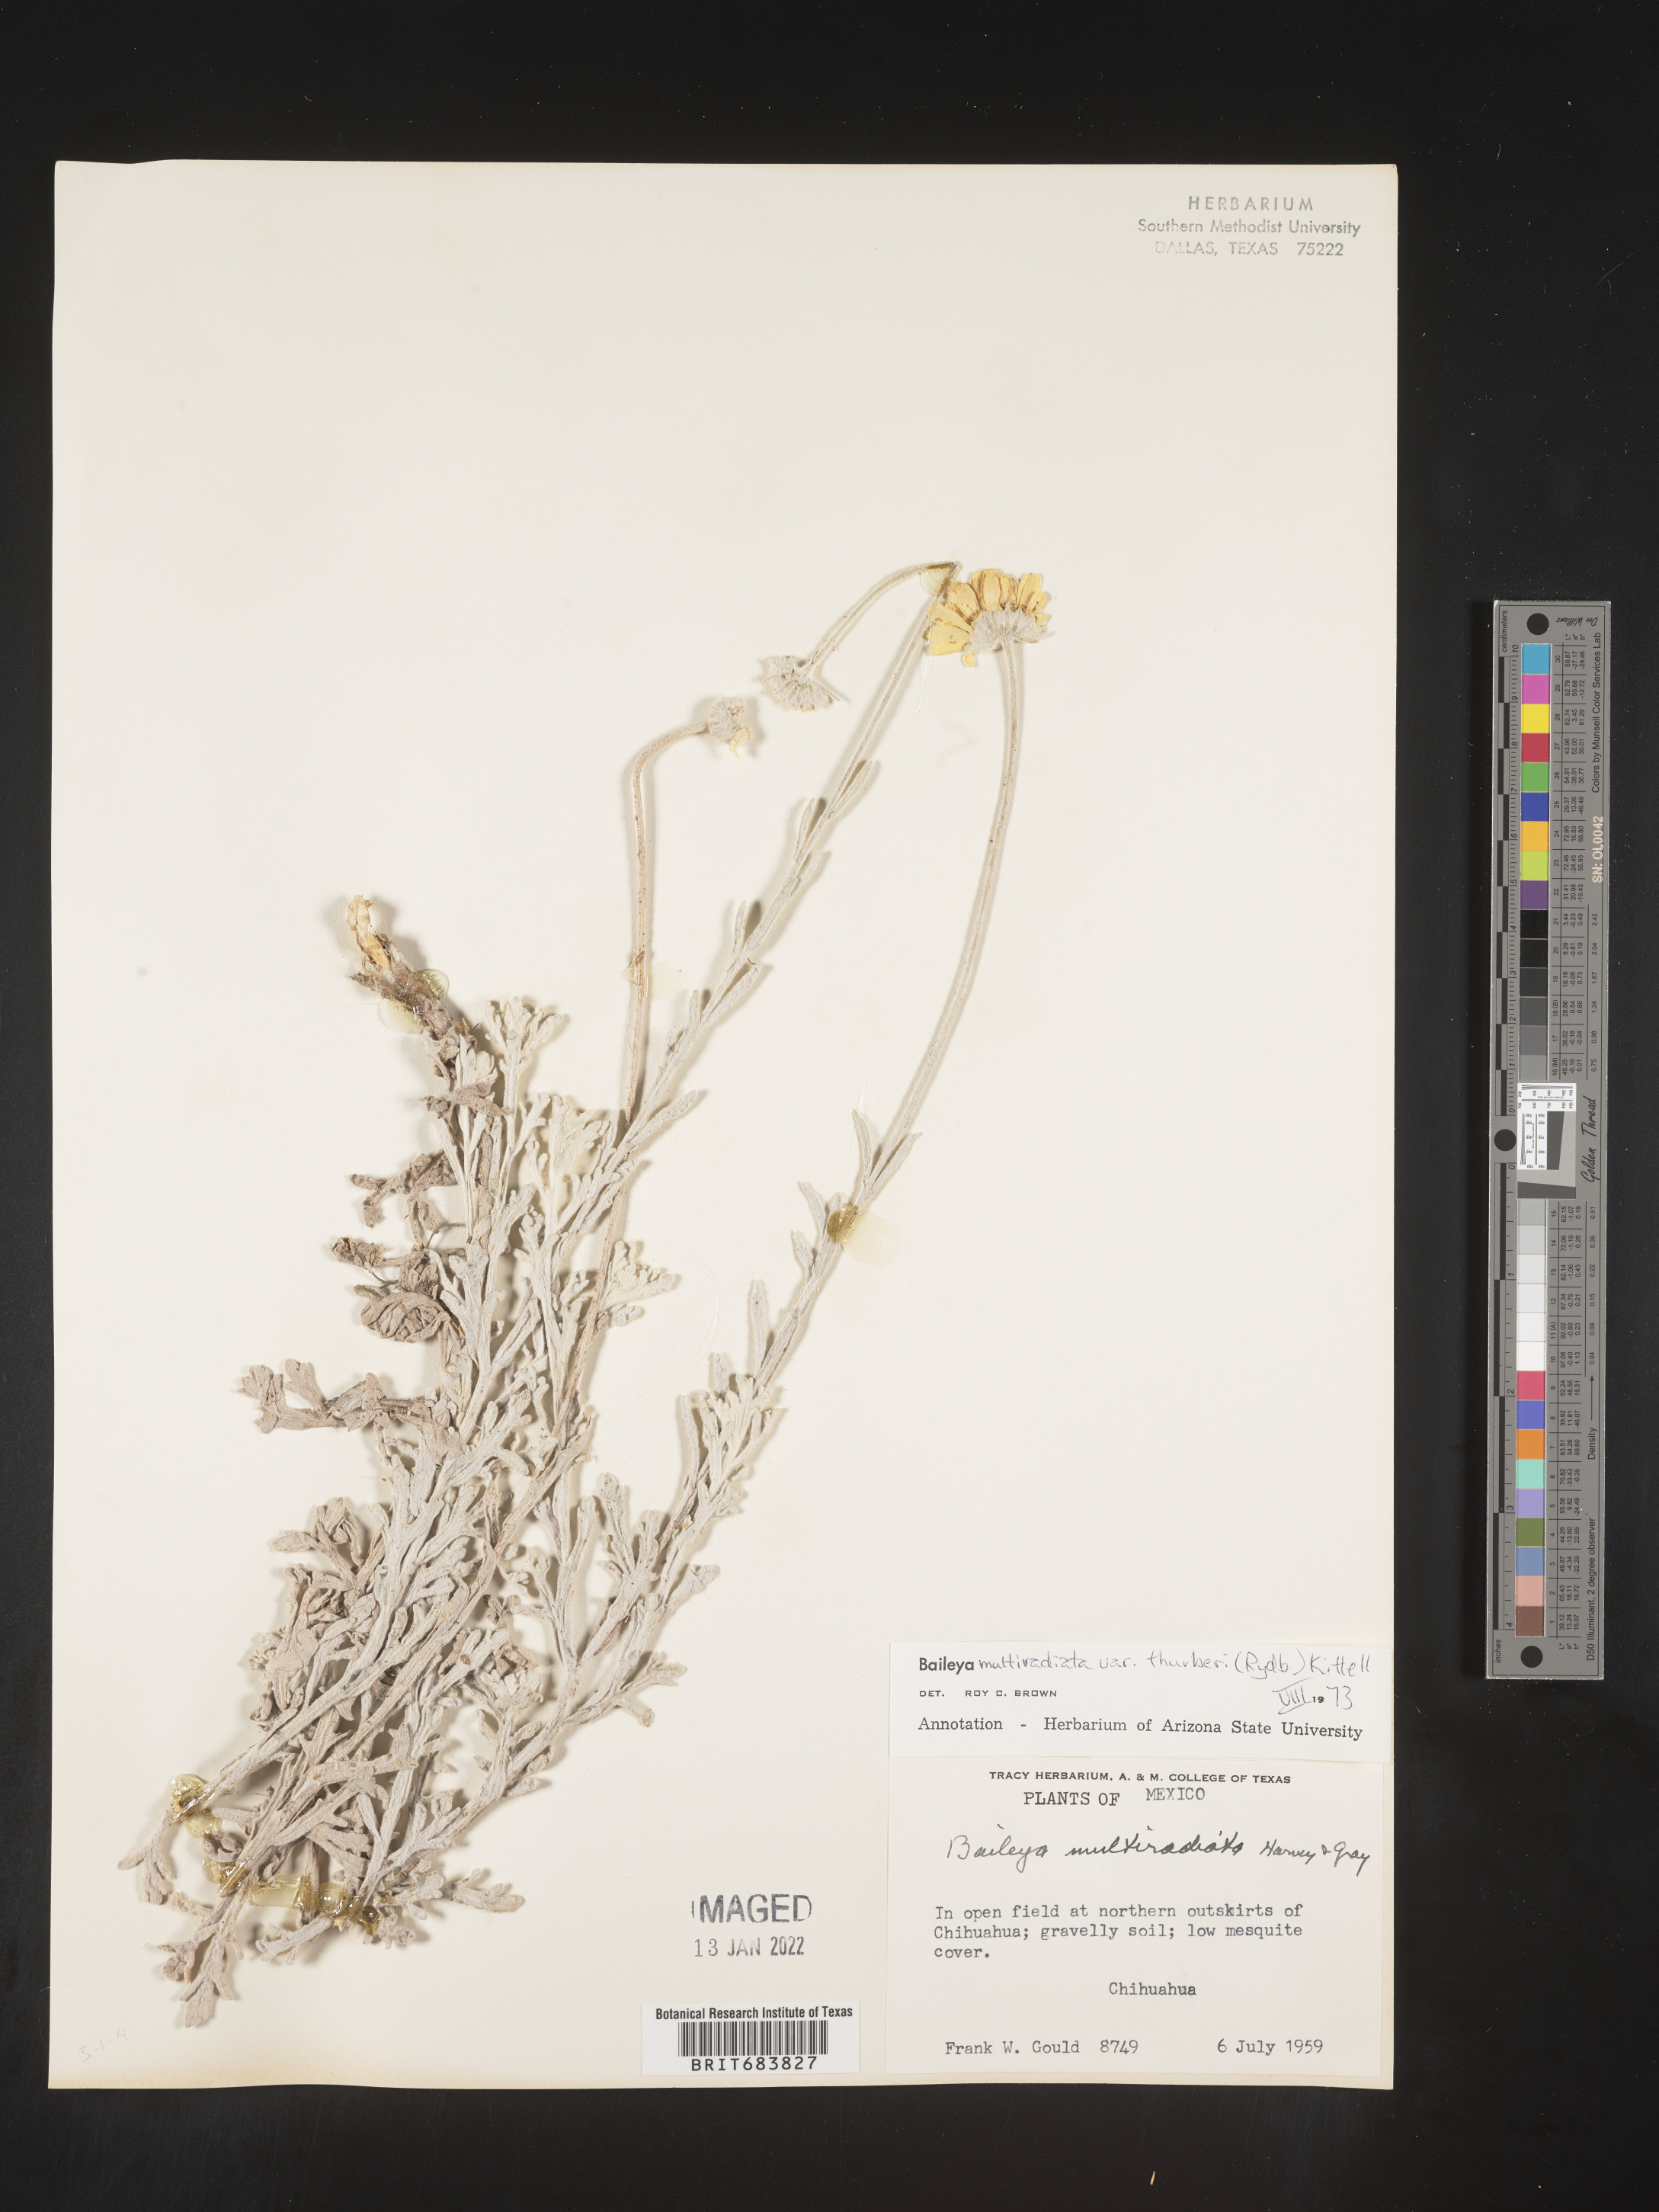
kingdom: Plantae
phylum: Tracheophyta
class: Magnoliopsida
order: Asterales
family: Asteraceae
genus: Baileya
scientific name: Baileya
